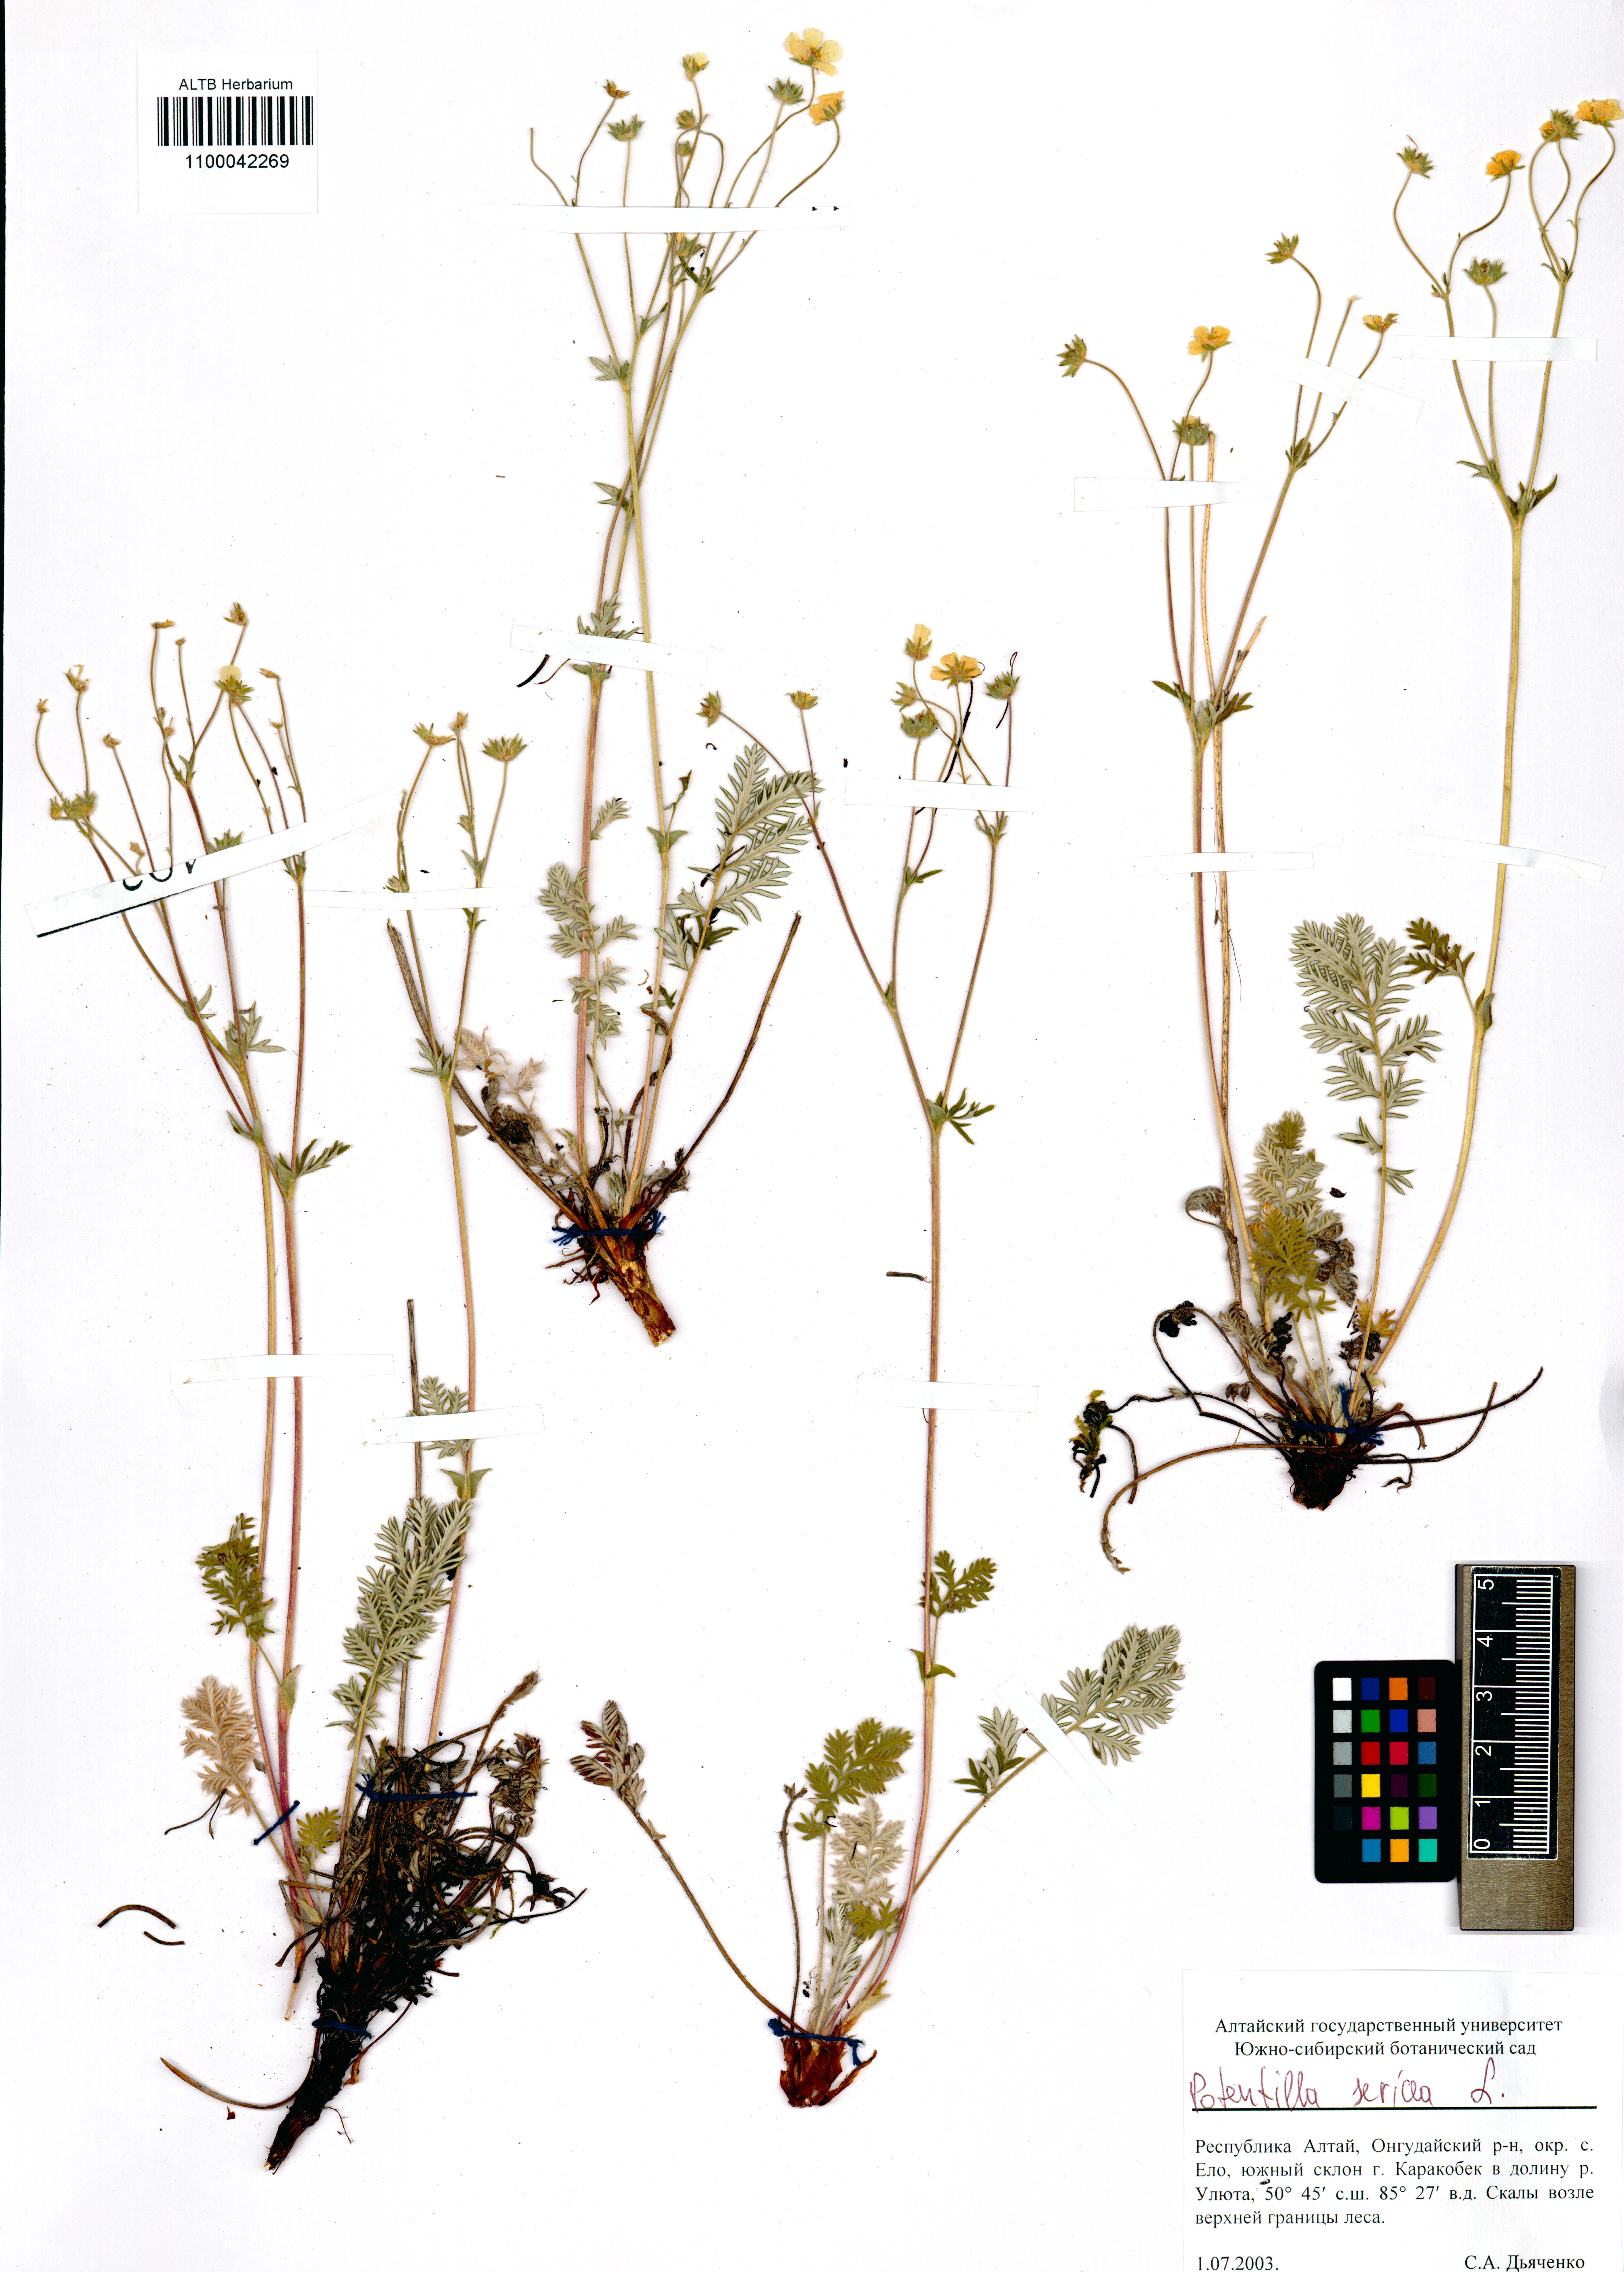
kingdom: Plantae
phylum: Tracheophyta
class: Magnoliopsida
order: Rosales
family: Rosaceae
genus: Potentilla
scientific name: Potentilla sericea
